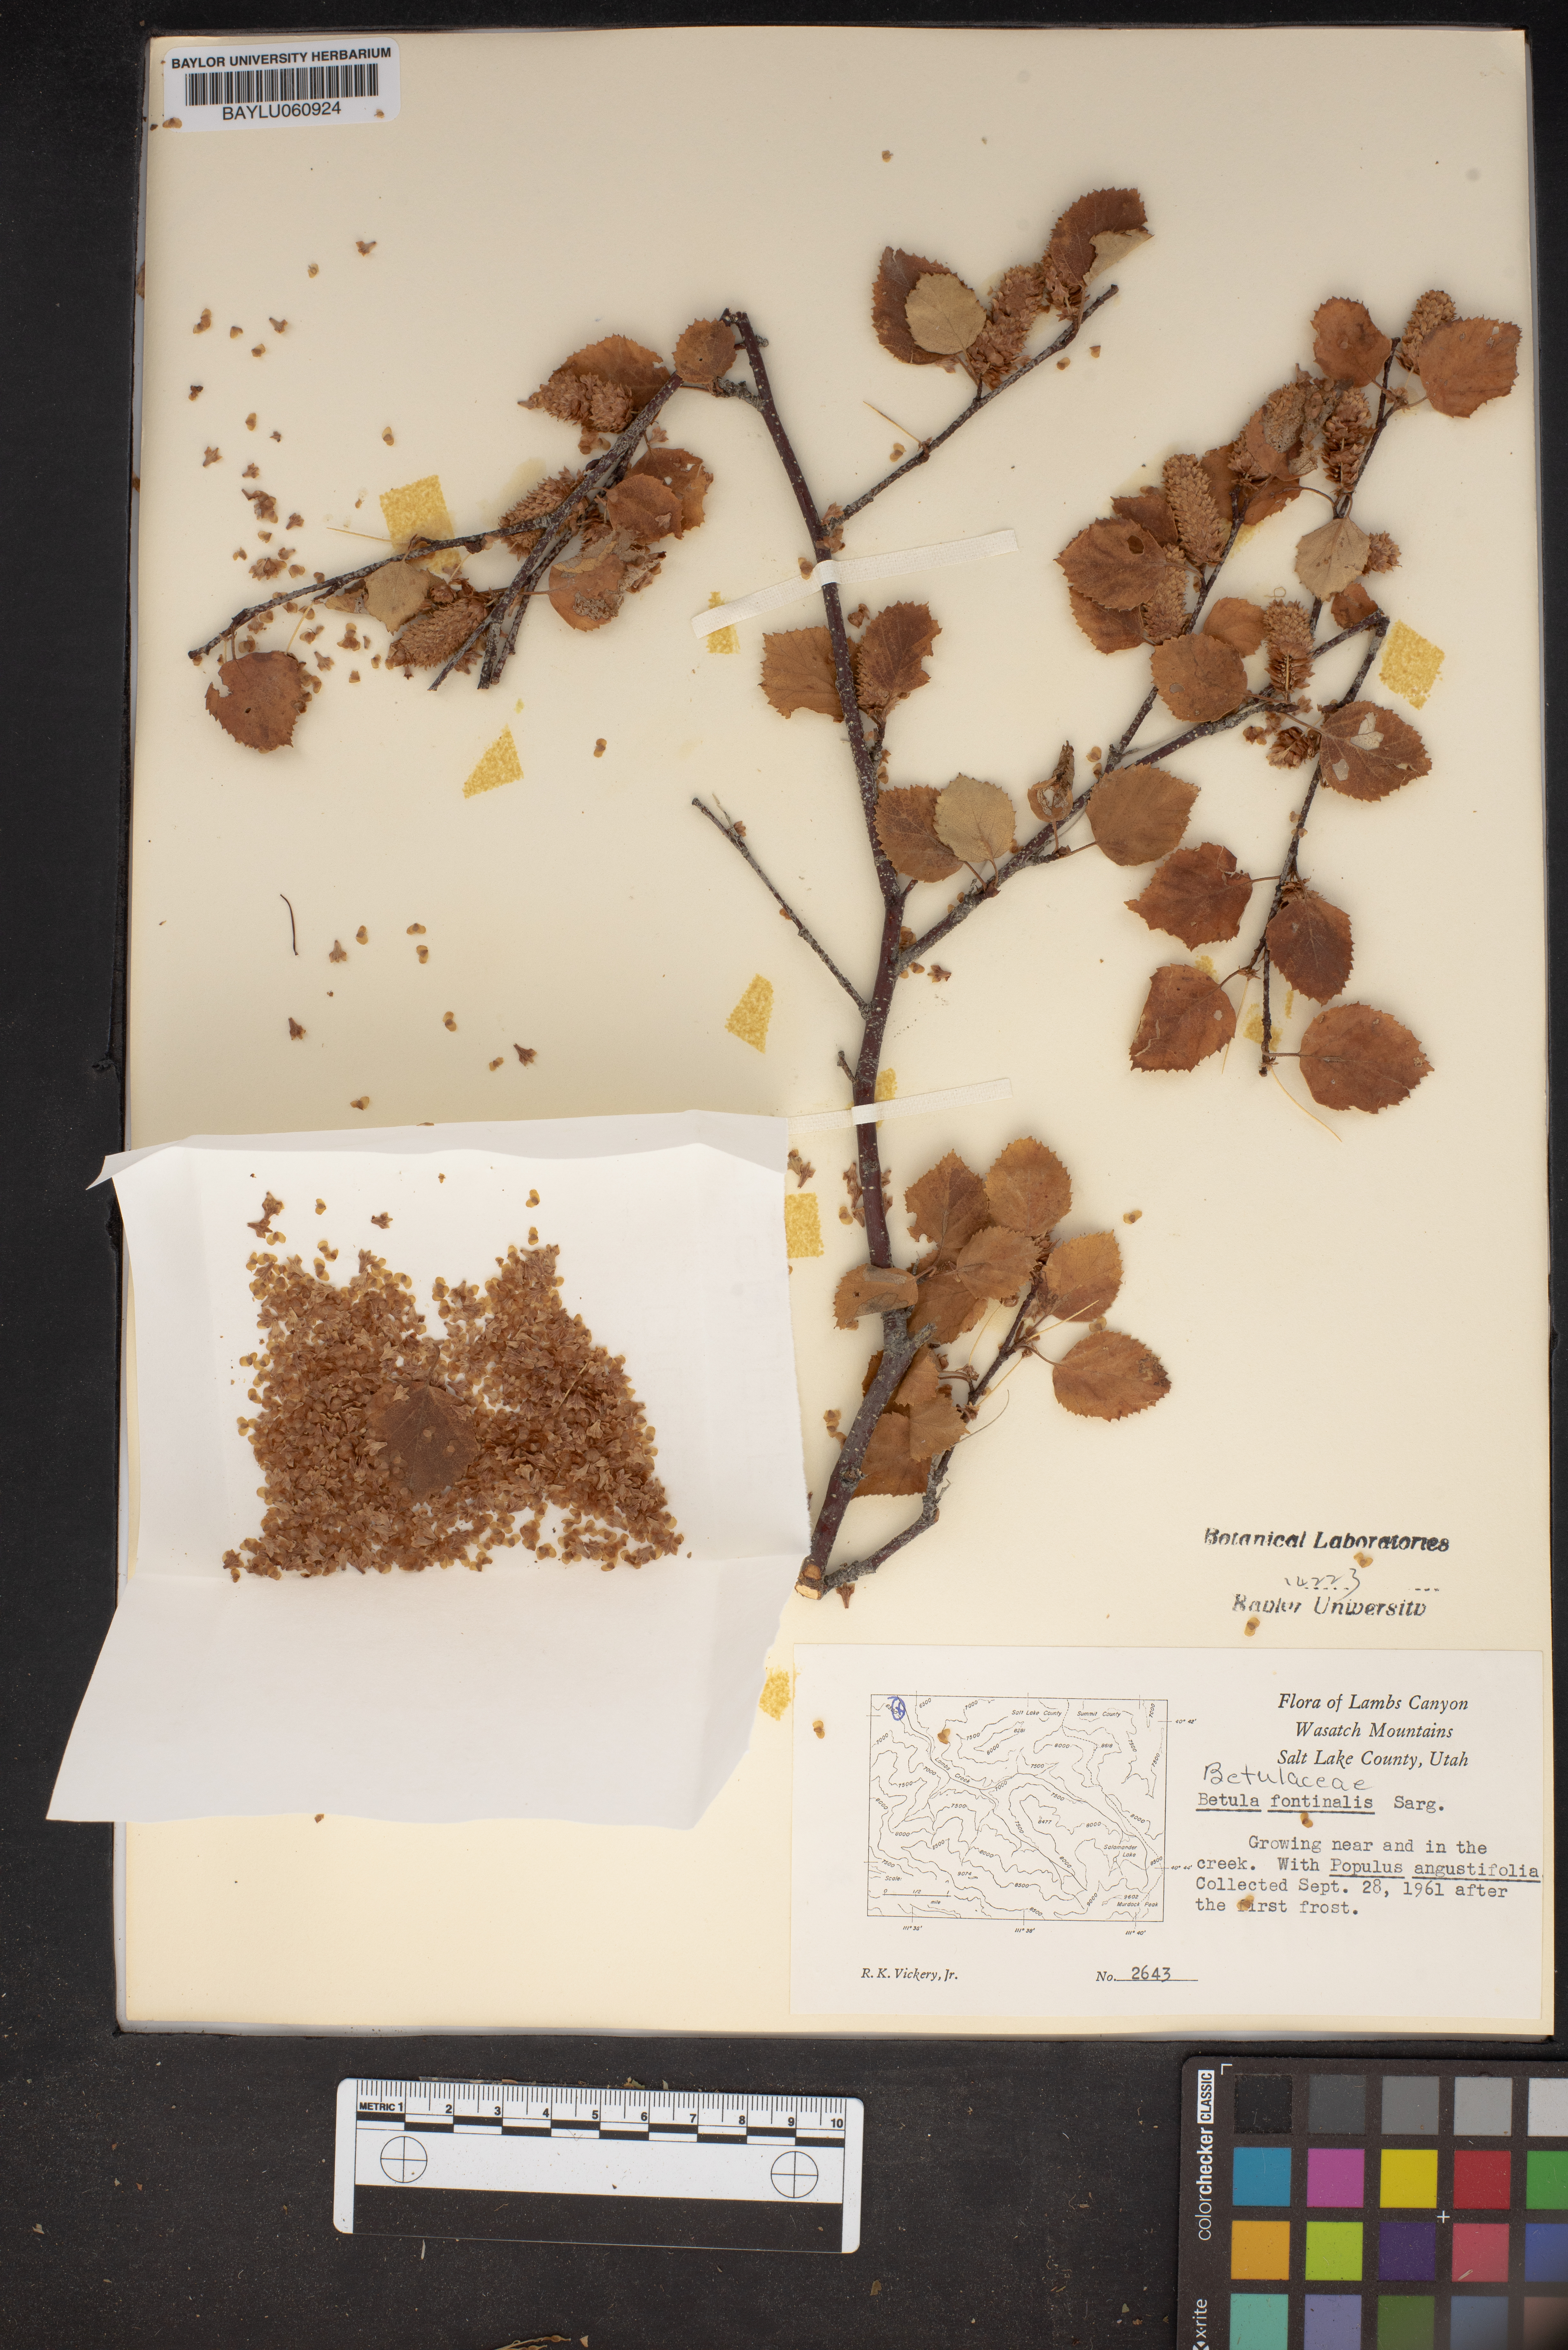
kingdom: Plantae
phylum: Tracheophyta
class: Magnoliopsida
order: Fagales
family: Betulaceae
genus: Betula
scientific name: Betula occidentalis
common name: River birch
